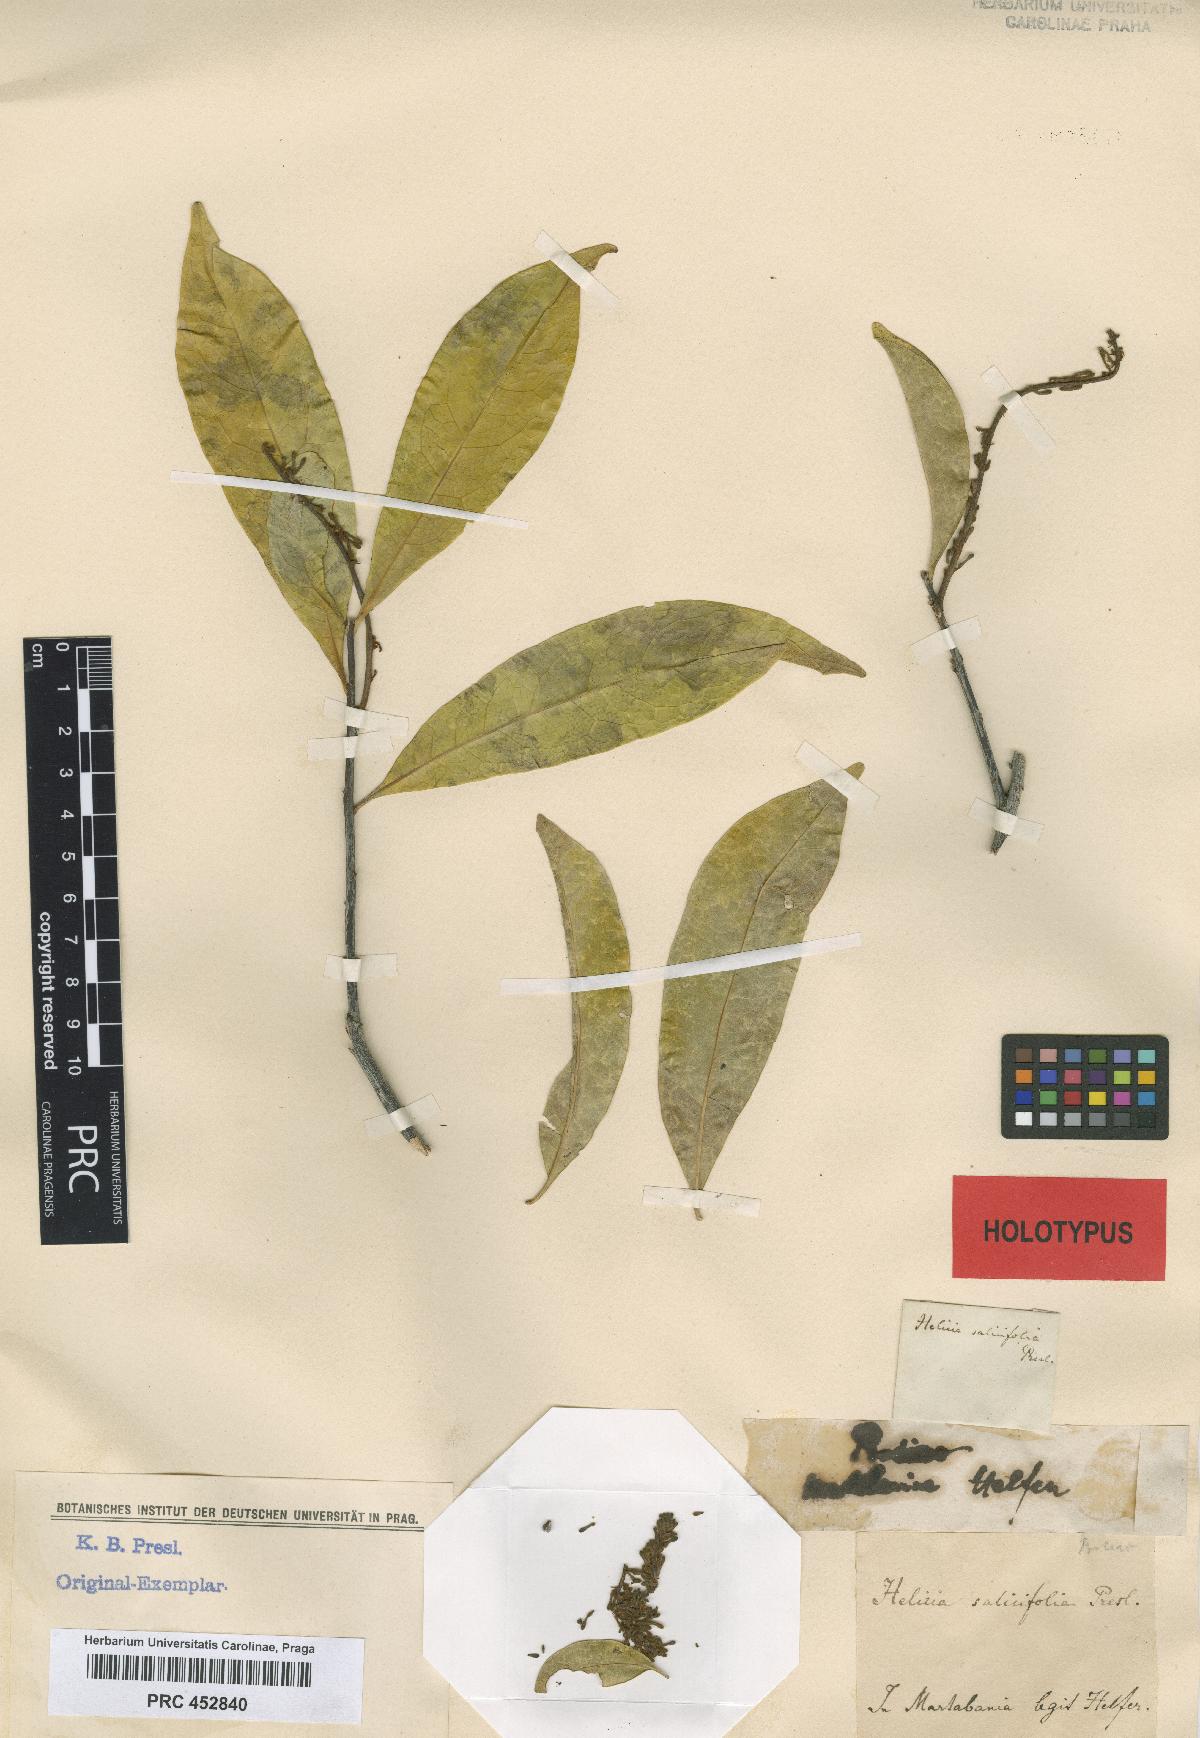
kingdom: Plantae
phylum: Tracheophyta
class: Magnoliopsida
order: Proteales
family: Proteaceae
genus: Helicia
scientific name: Helicia excelsa
